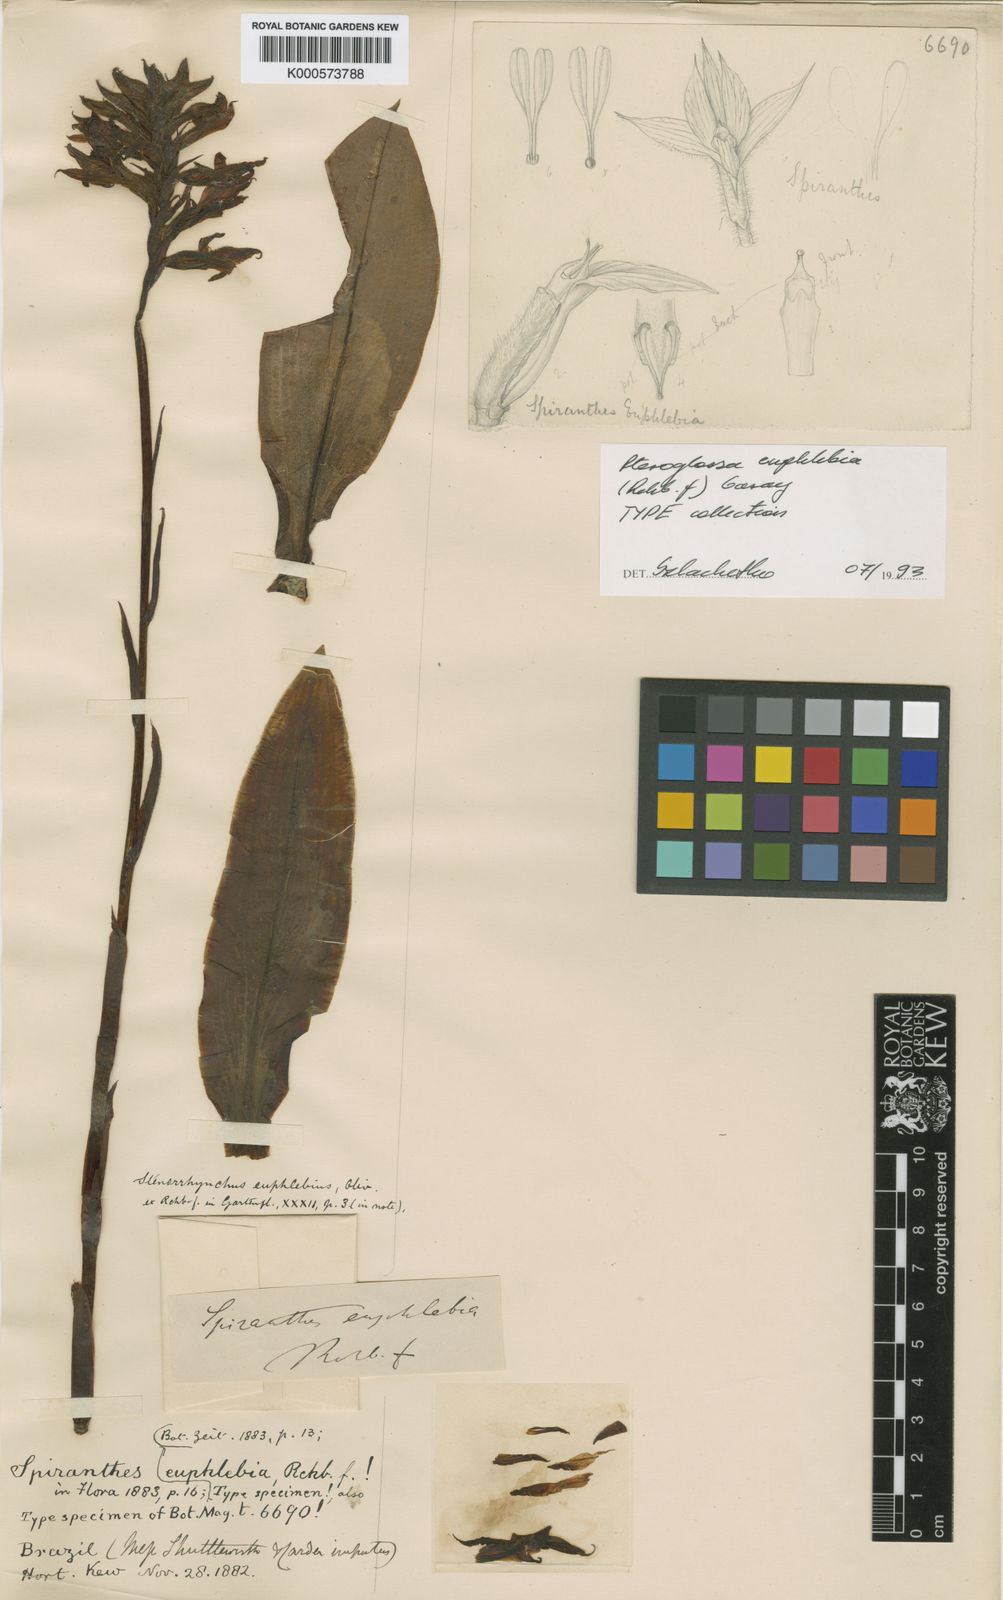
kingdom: Plantae
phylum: Tracheophyta
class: Liliopsida
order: Asparagales
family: Orchidaceae
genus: Pteroglossa
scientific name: Pteroglossa euphlebia
